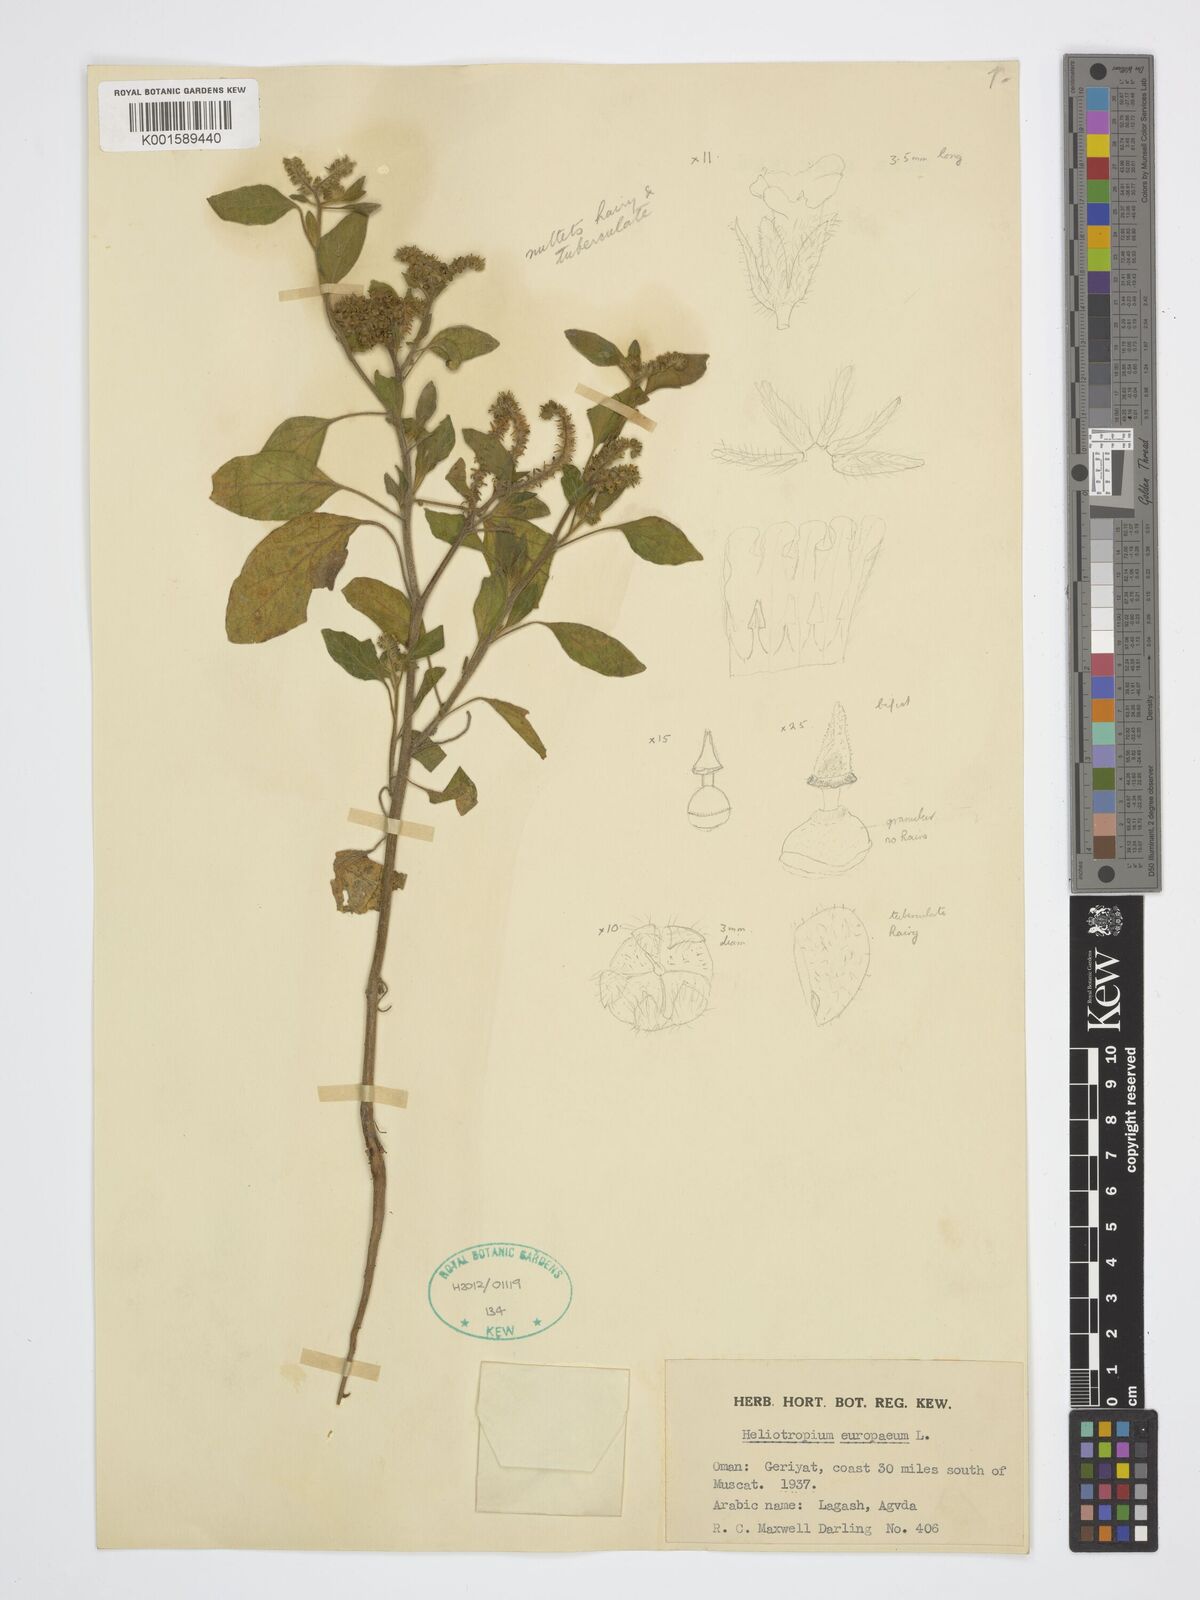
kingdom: Plantae
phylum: Tracheophyta
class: Magnoliopsida
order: Boraginales
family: Heliotropiaceae
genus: Heliotropium
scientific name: Heliotropium europaeum
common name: European heliotrope
